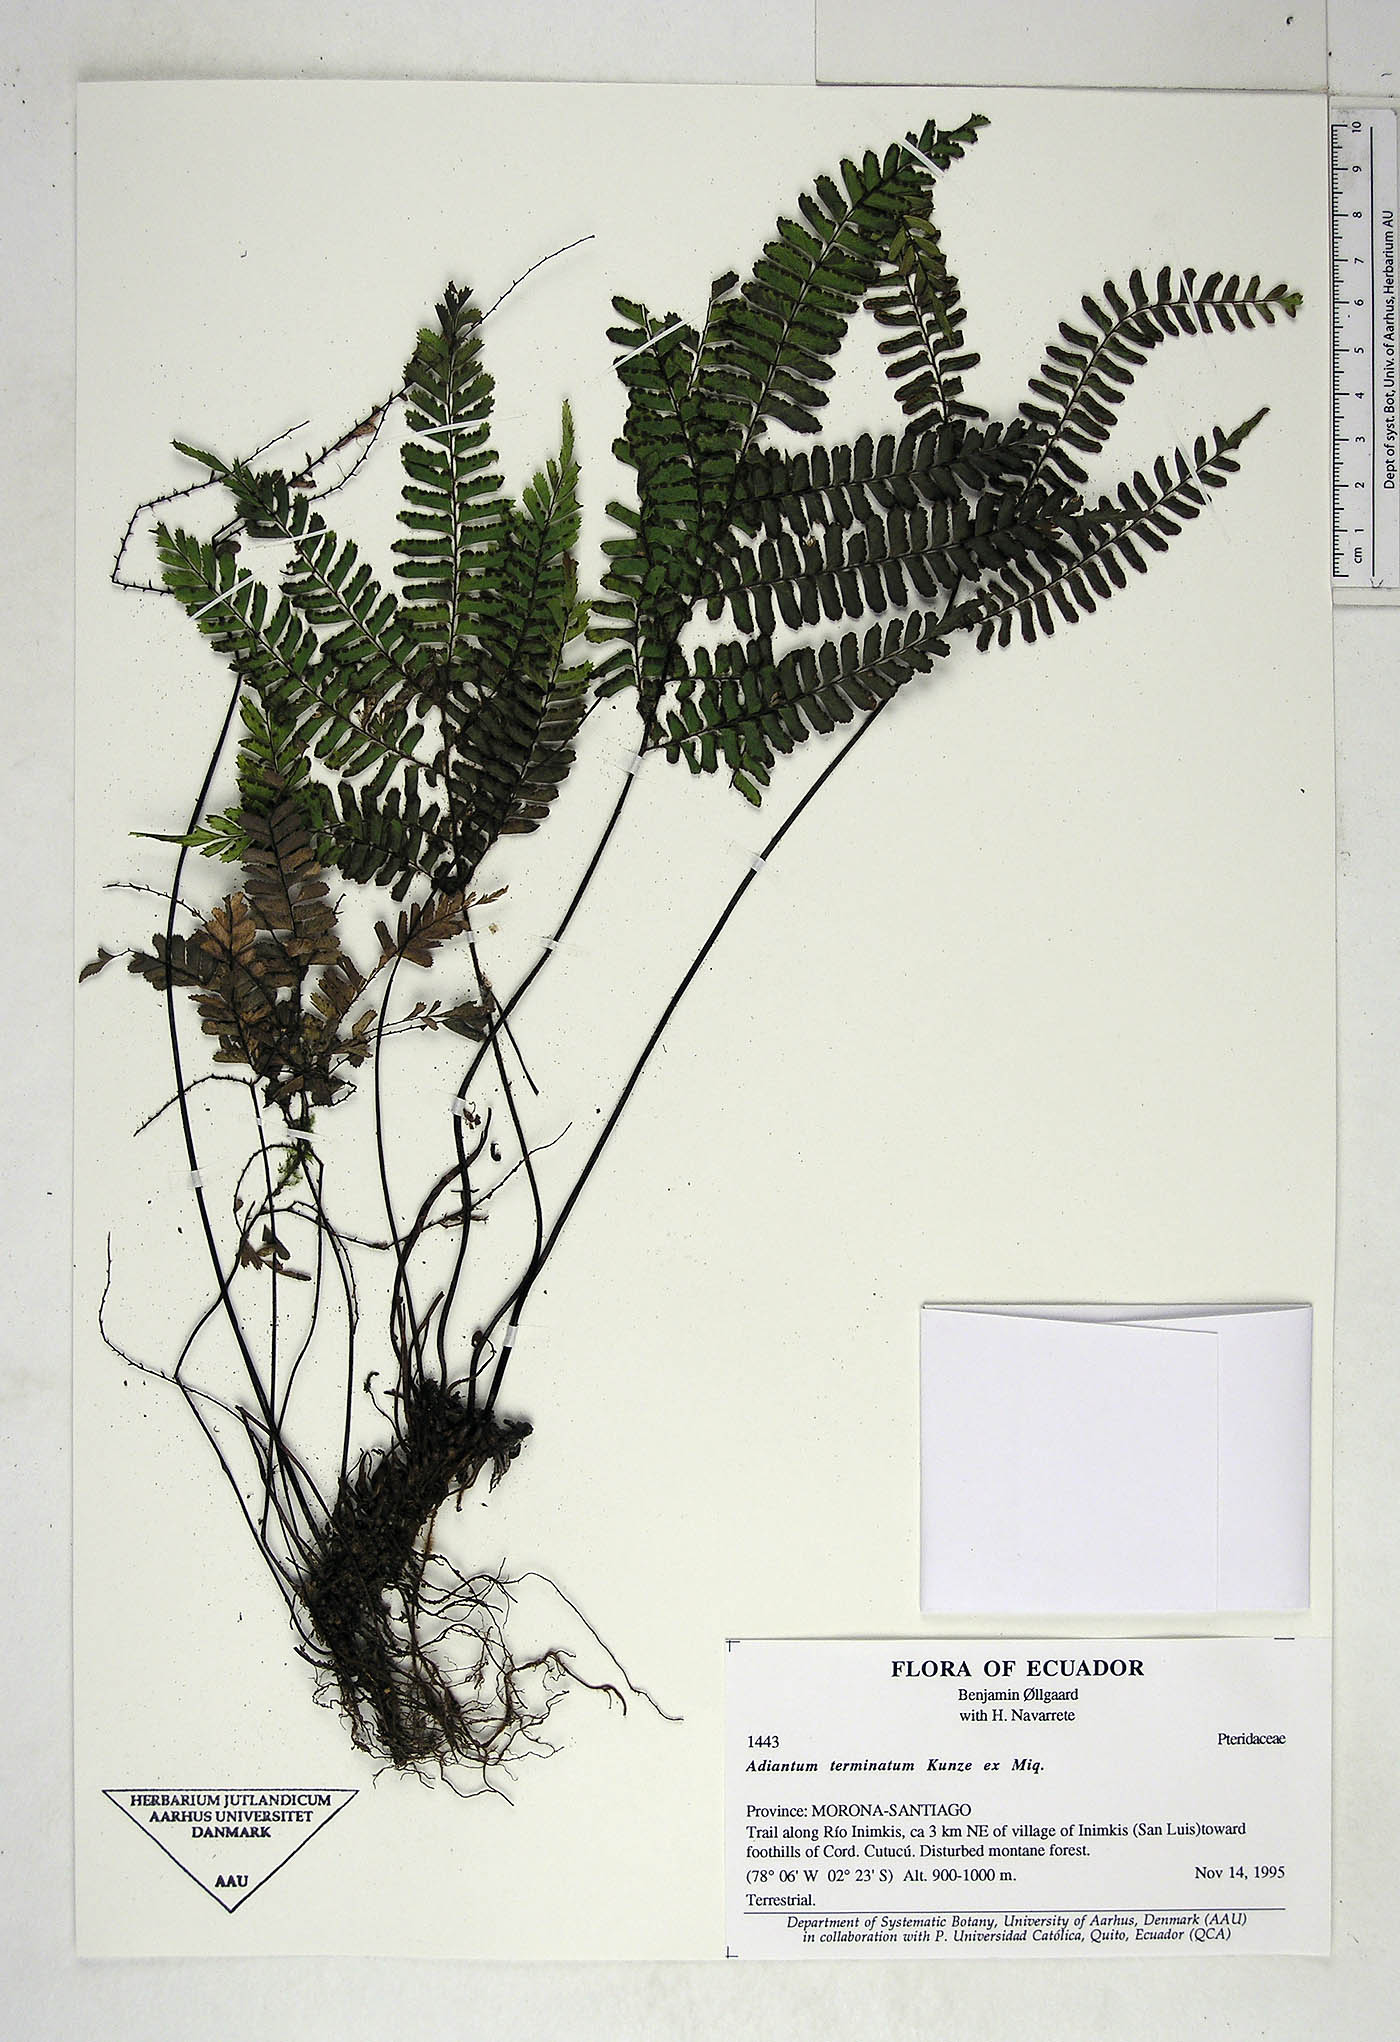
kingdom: Plantae
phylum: Tracheophyta
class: Polypodiopsida
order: Polypodiales
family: Pteridaceae
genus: Adiantum
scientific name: Adiantum terminatum
